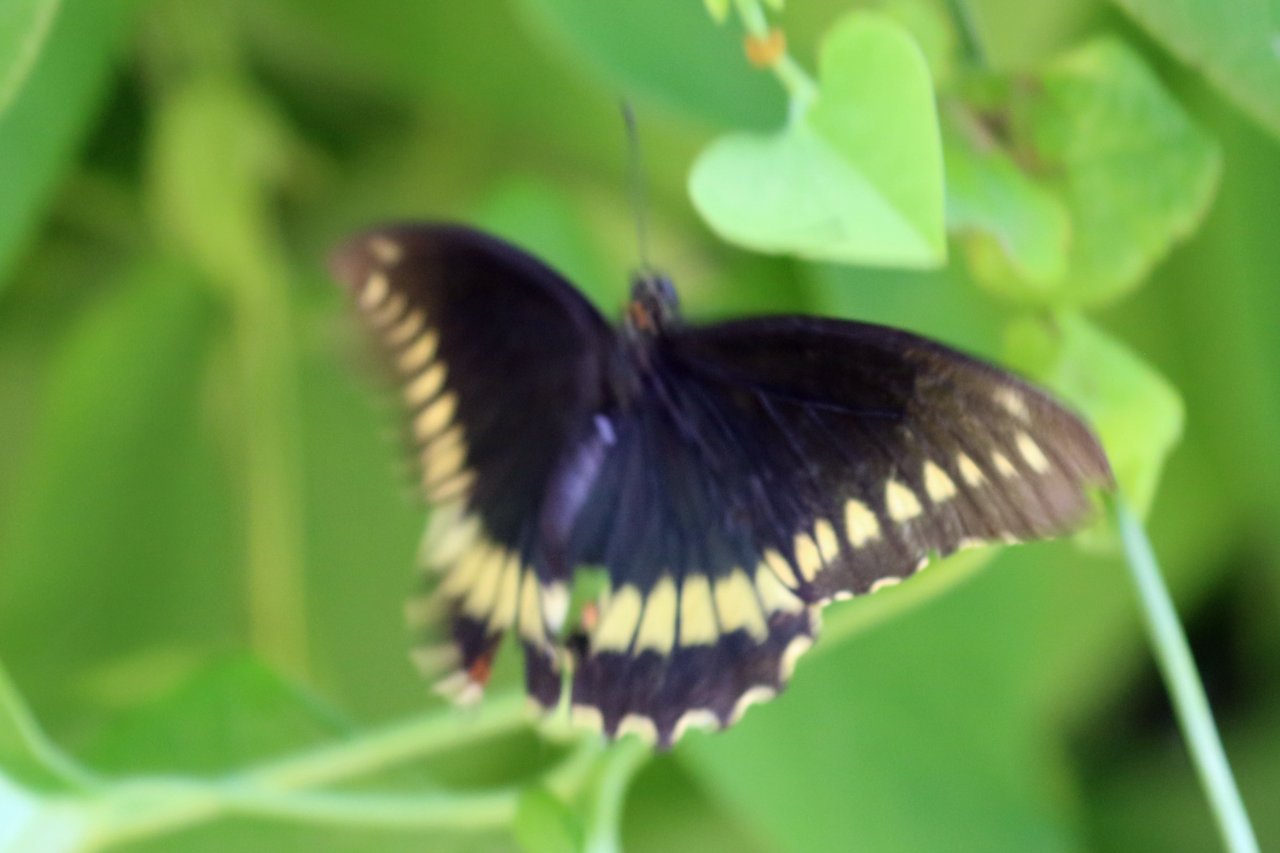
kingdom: Animalia
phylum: Arthropoda
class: Insecta
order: Lepidoptera
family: Papilionidae
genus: Battus
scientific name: Battus polydamas
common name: Polydamas Swallowtail
